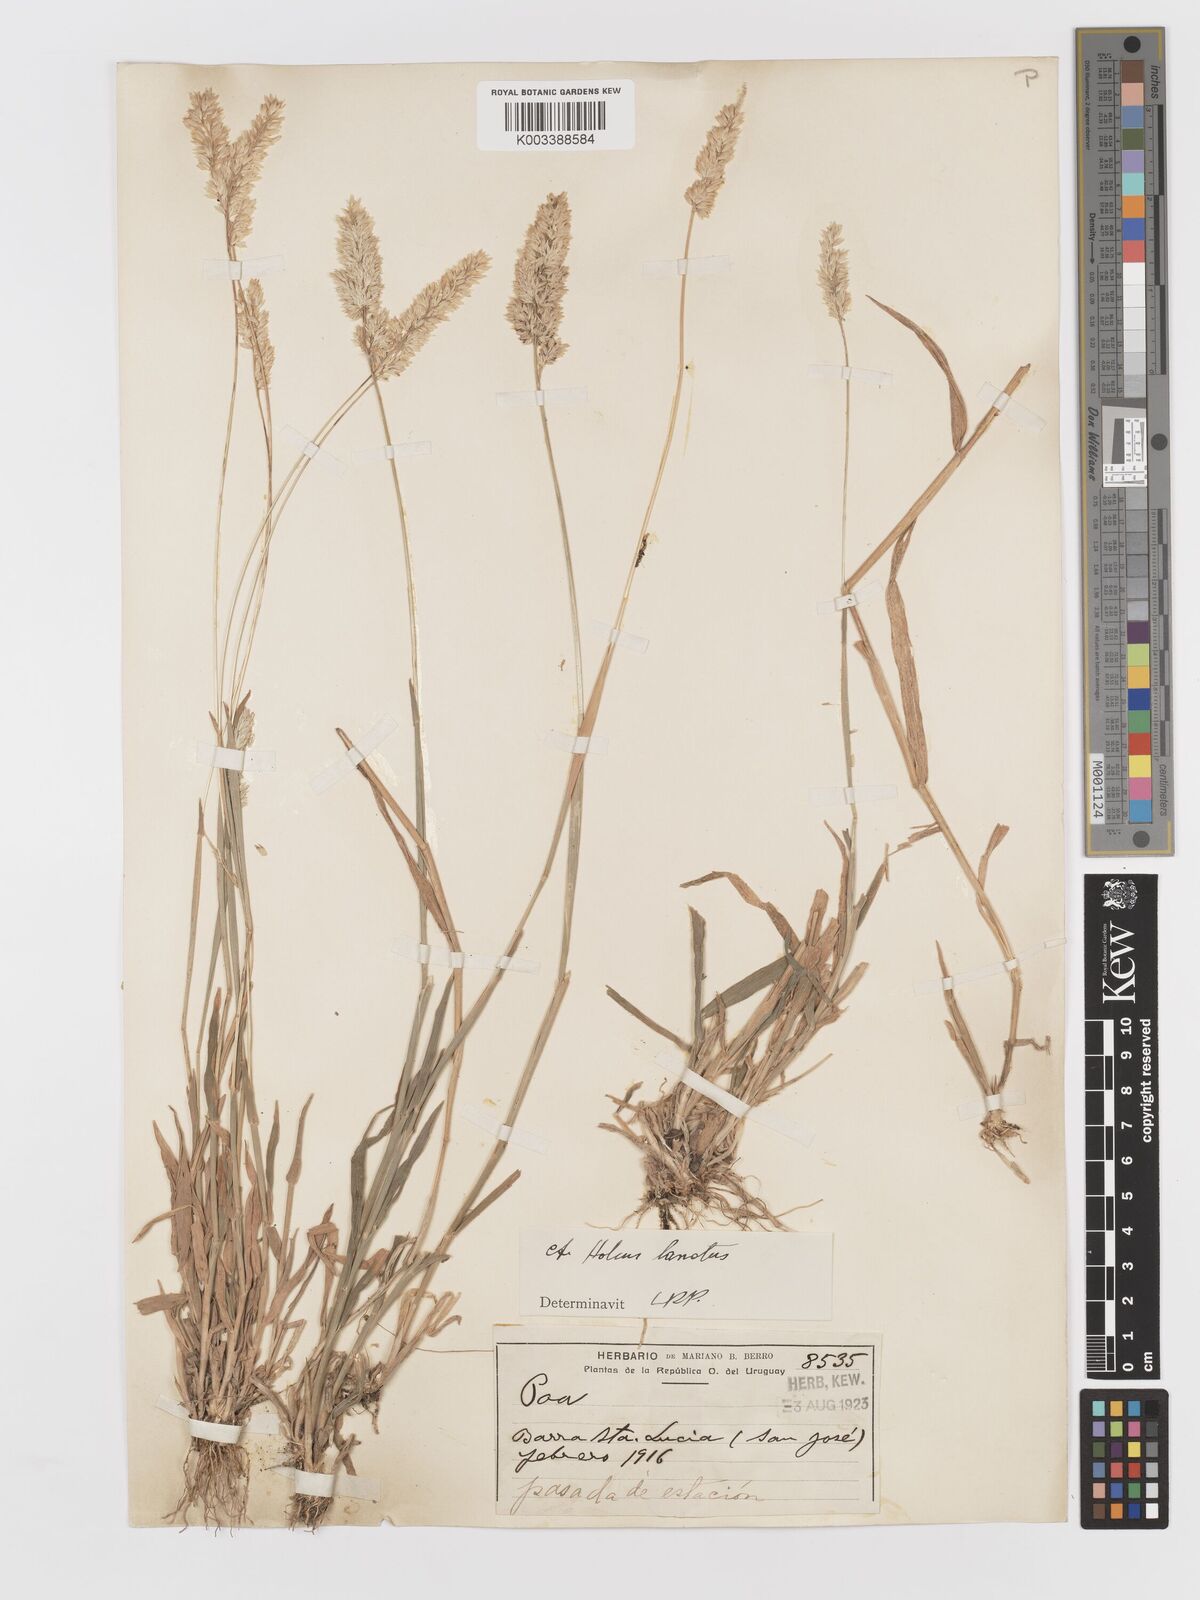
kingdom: Plantae
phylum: Tracheophyta
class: Liliopsida
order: Poales
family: Poaceae
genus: Holcus
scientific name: Holcus lanatus
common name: Yorkshire-fog
